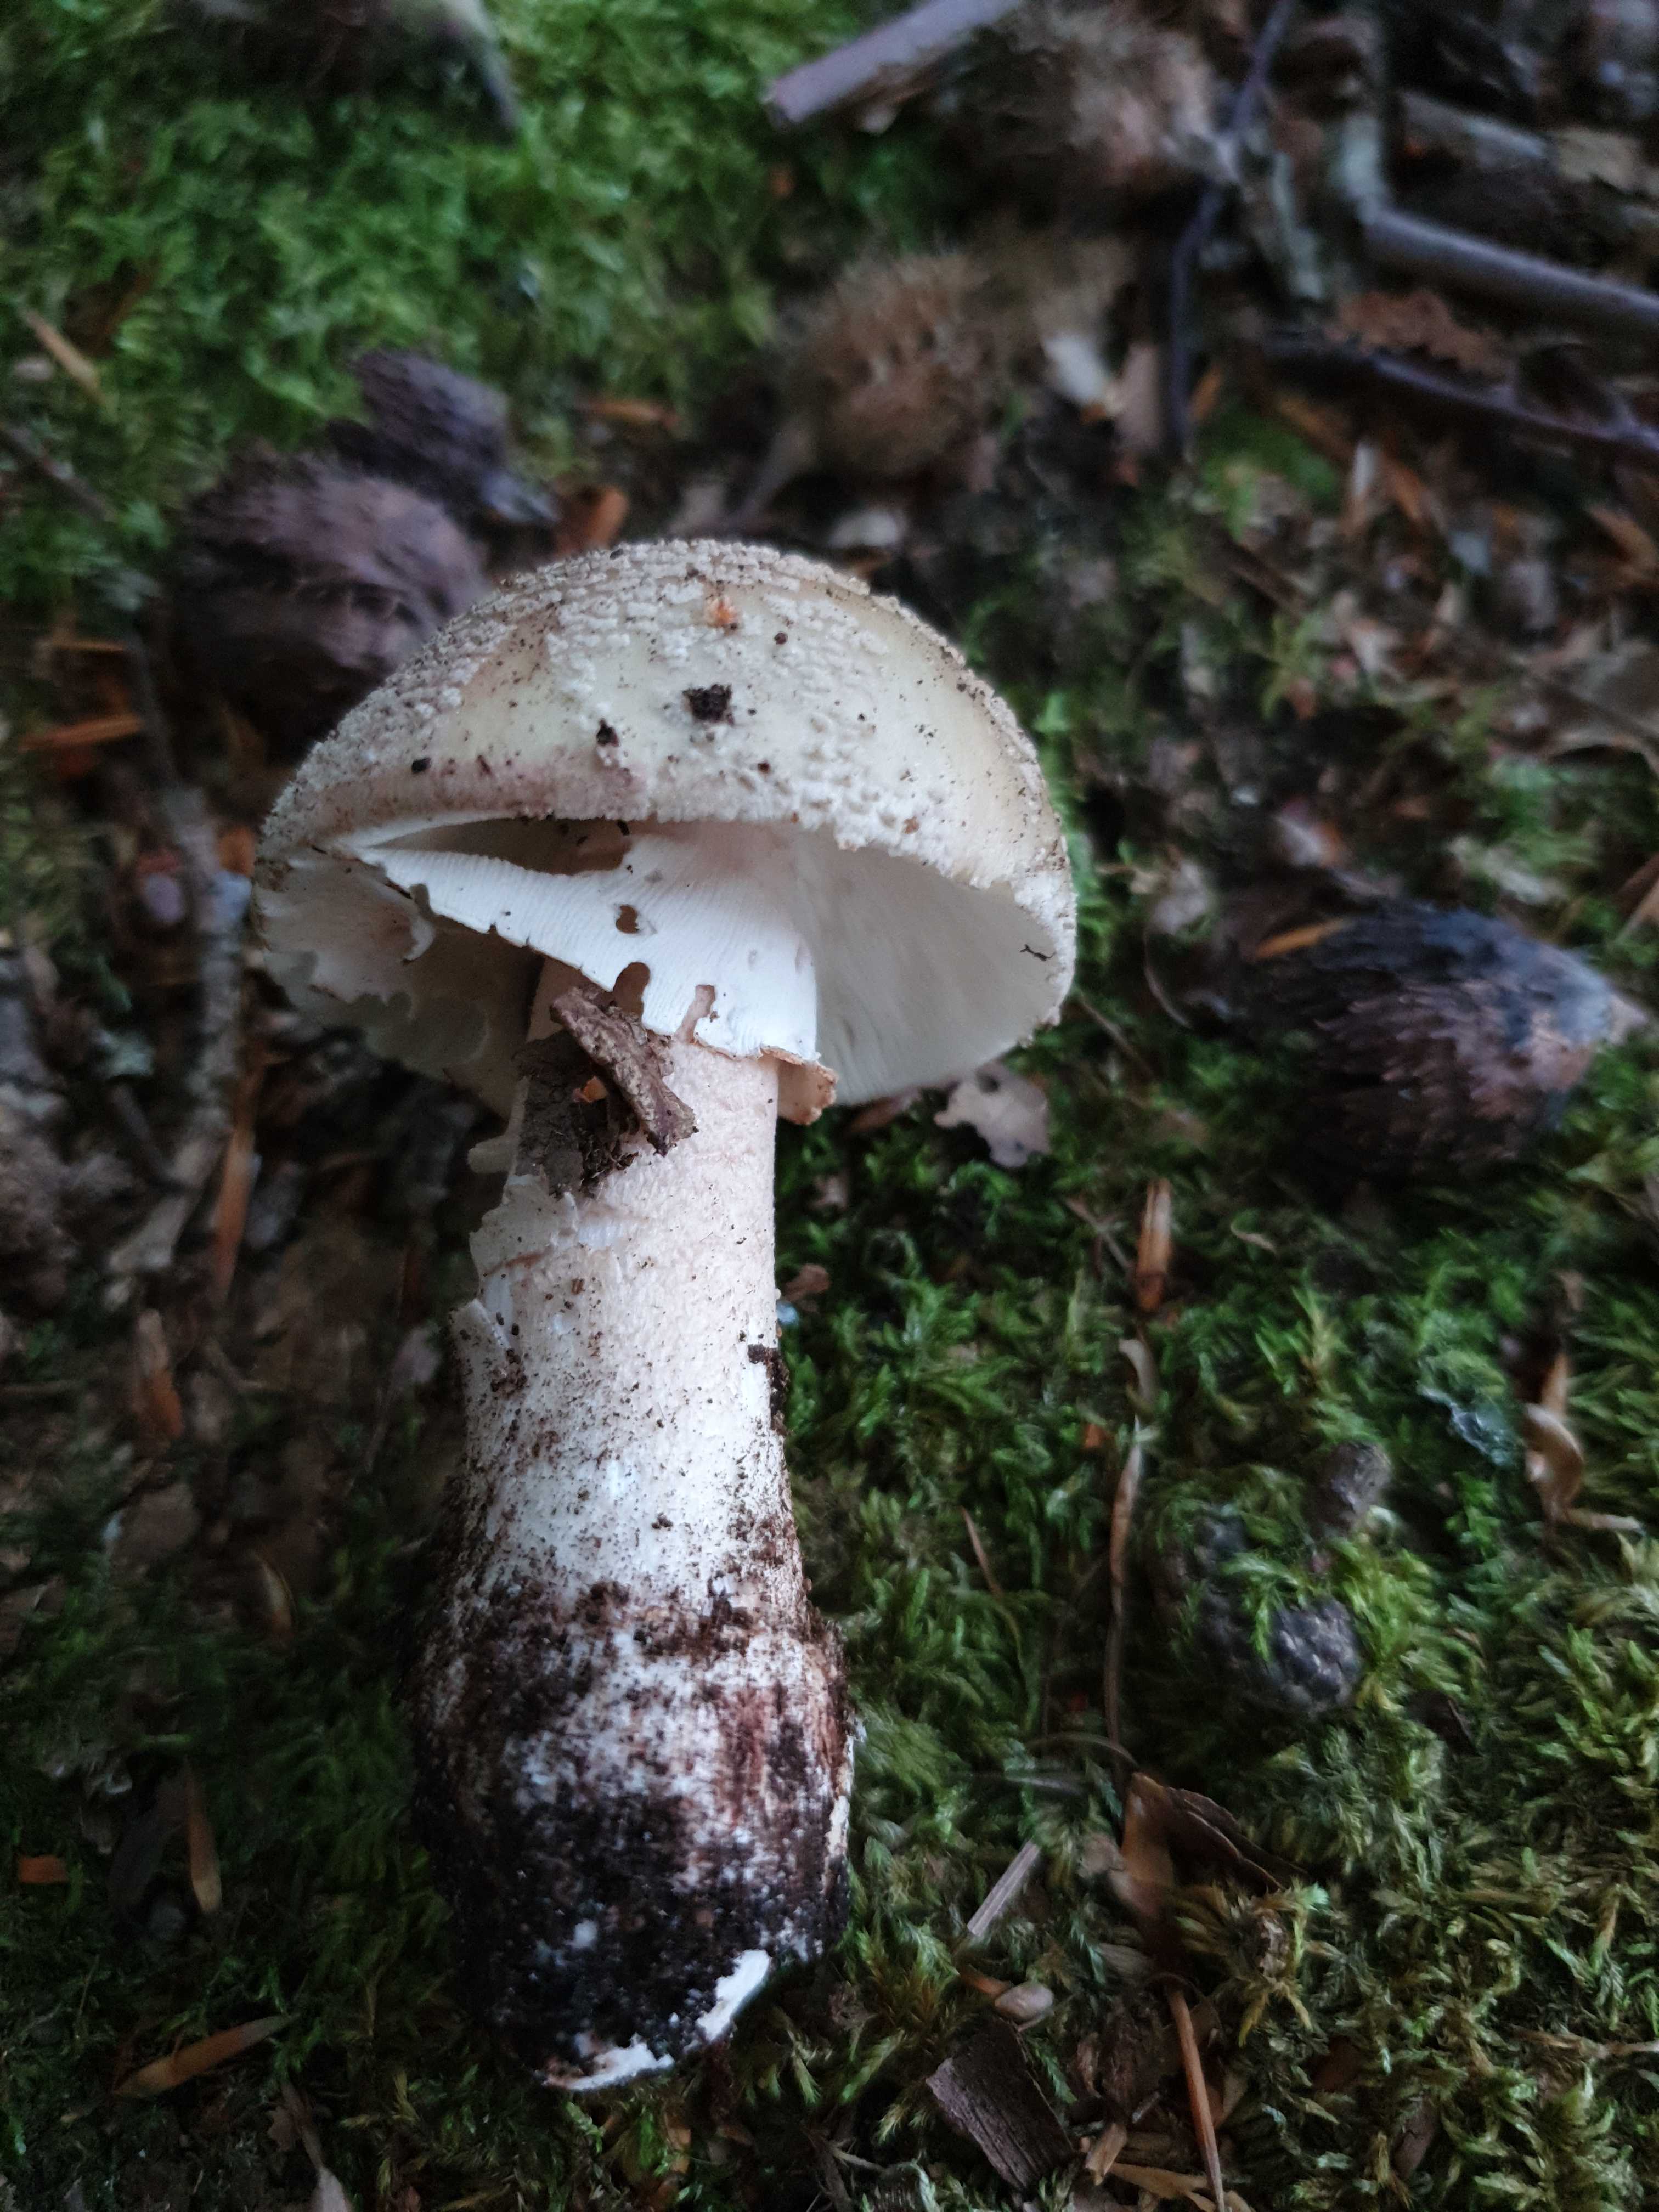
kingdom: Fungi
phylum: Basidiomycota
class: Agaricomycetes
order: Agaricales
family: Amanitaceae
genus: Amanita
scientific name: Amanita rubescens
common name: rødmende fluesvamp
